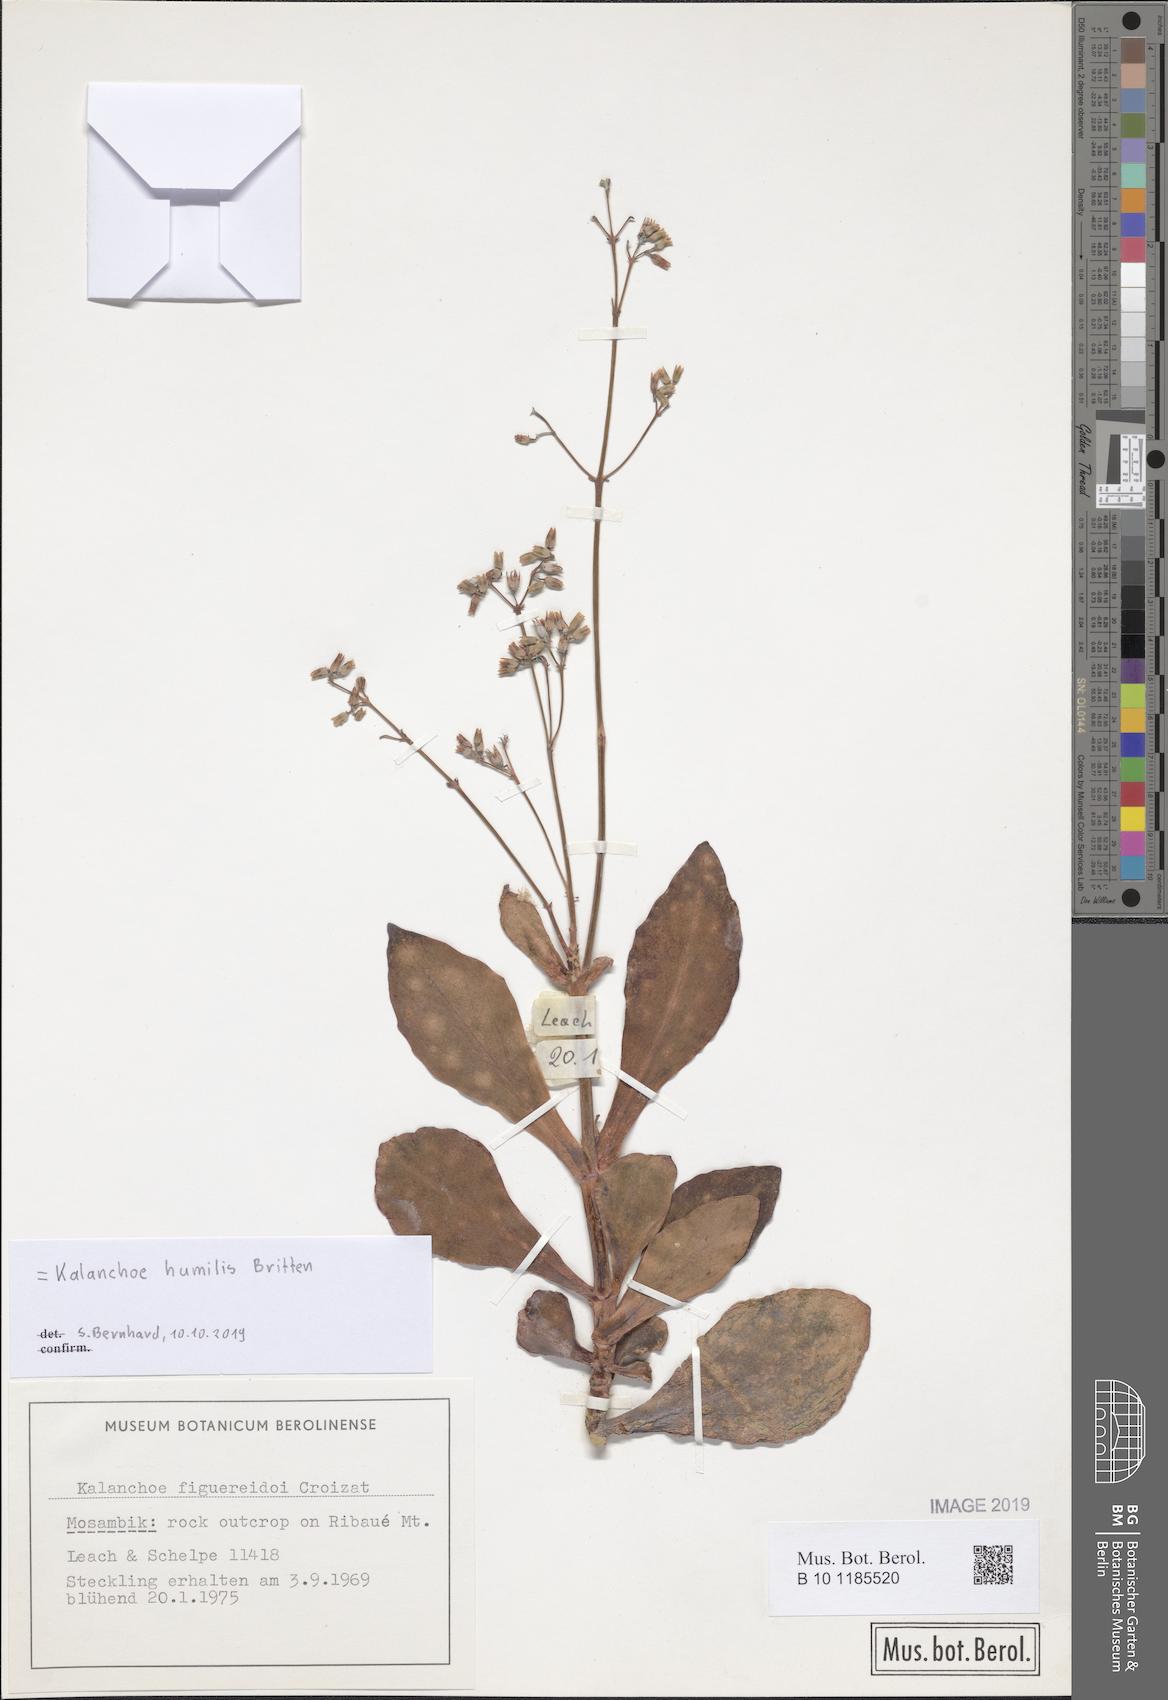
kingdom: Plantae
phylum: Tracheophyta
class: Magnoliopsida
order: Saxifragales
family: Crassulaceae
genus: Kalanchoe
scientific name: Kalanchoe humilis
